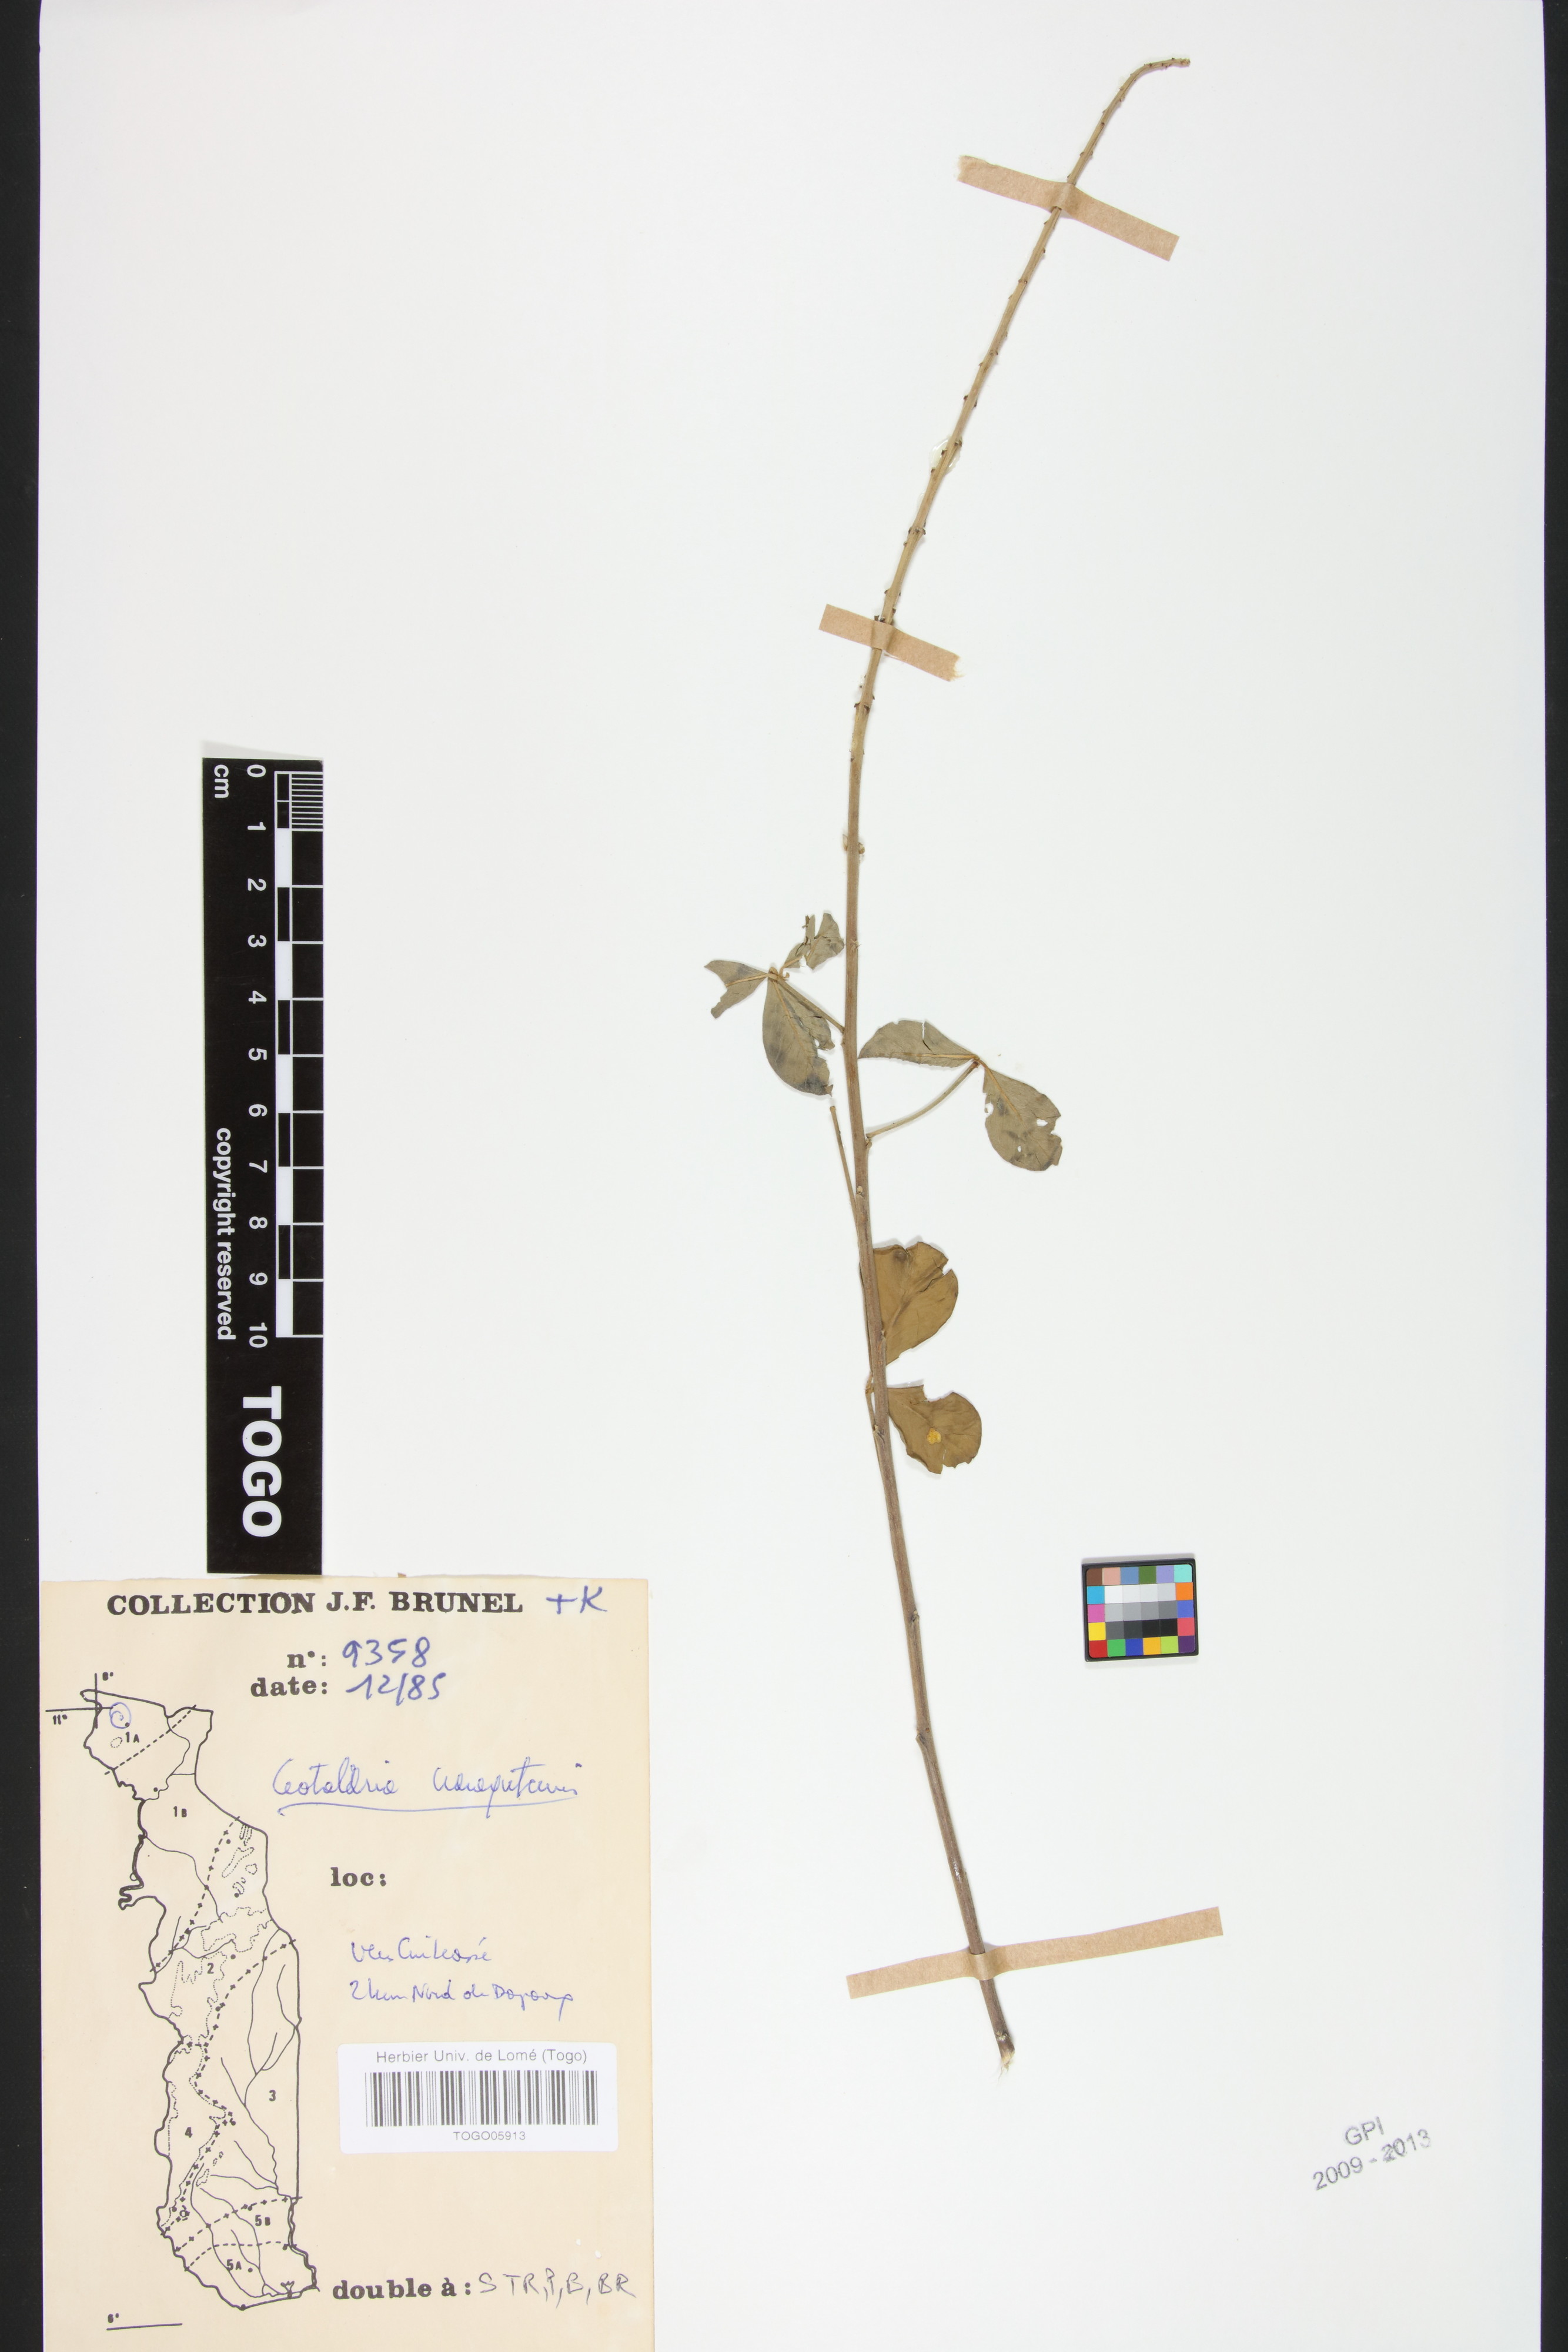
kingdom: Plantae
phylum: Tracheophyta
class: Magnoliopsida
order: Fabales
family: Fabaceae
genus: Crotalaria
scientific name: Crotalaria naragutensis
